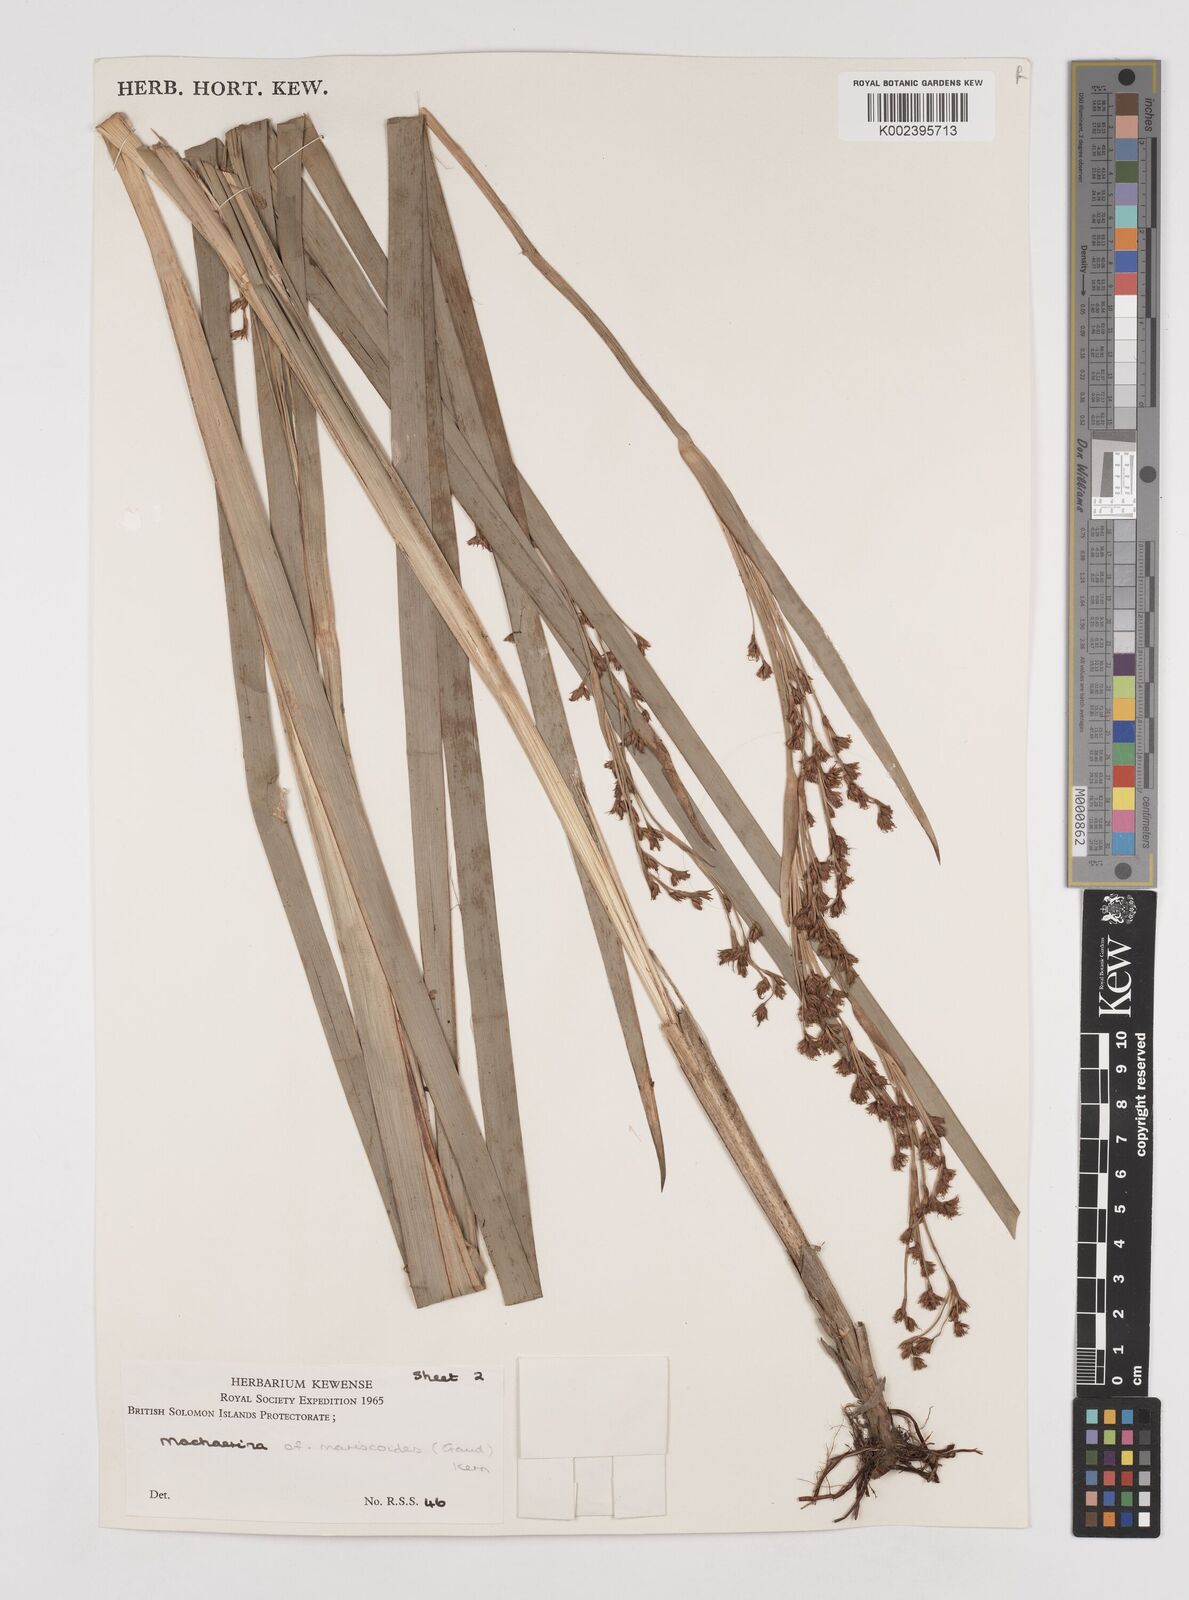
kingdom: Plantae
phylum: Tracheophyta
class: Liliopsida
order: Poales
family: Cyperaceae
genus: Machaerina
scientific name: Machaerina mariscoides
